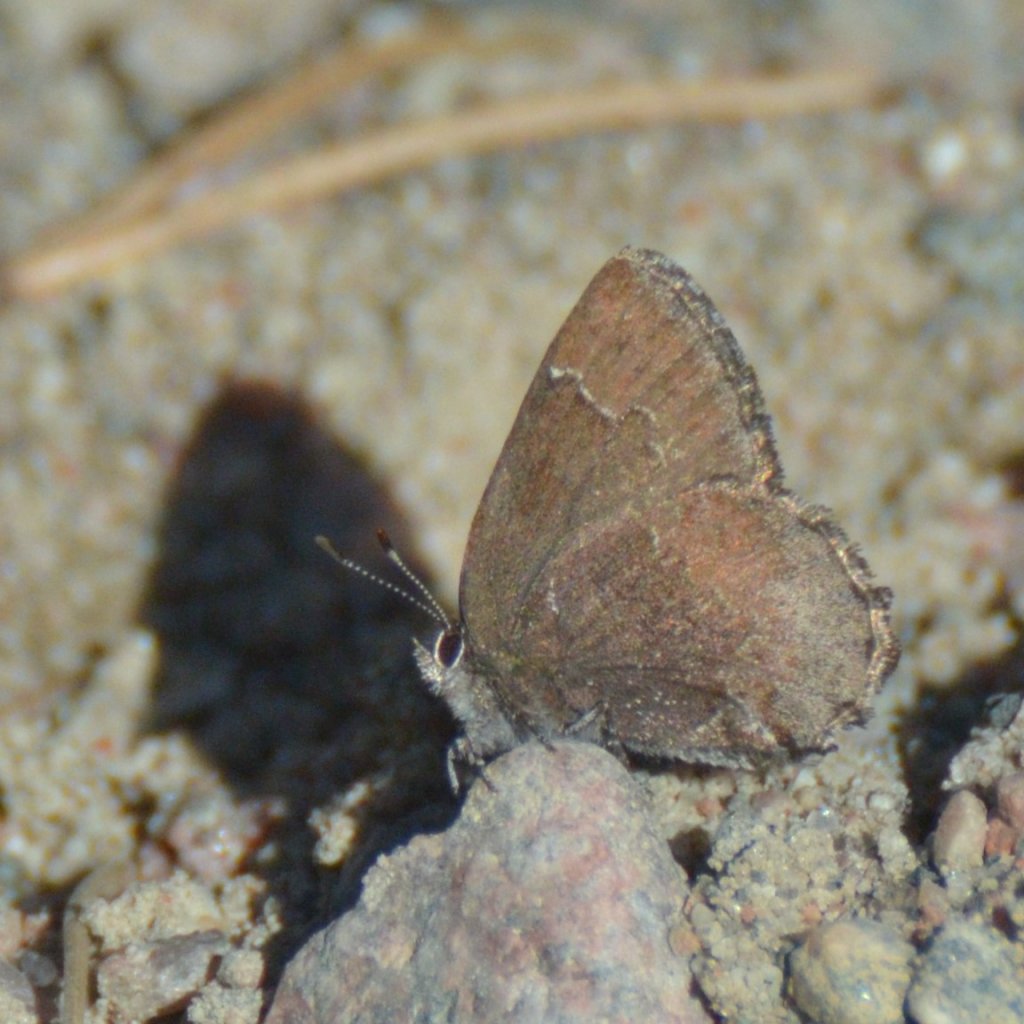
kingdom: Animalia
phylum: Arthropoda
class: Insecta
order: Lepidoptera
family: Lycaenidae
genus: Callophrys
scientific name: Callophrys polios
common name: Hoary Elfin
